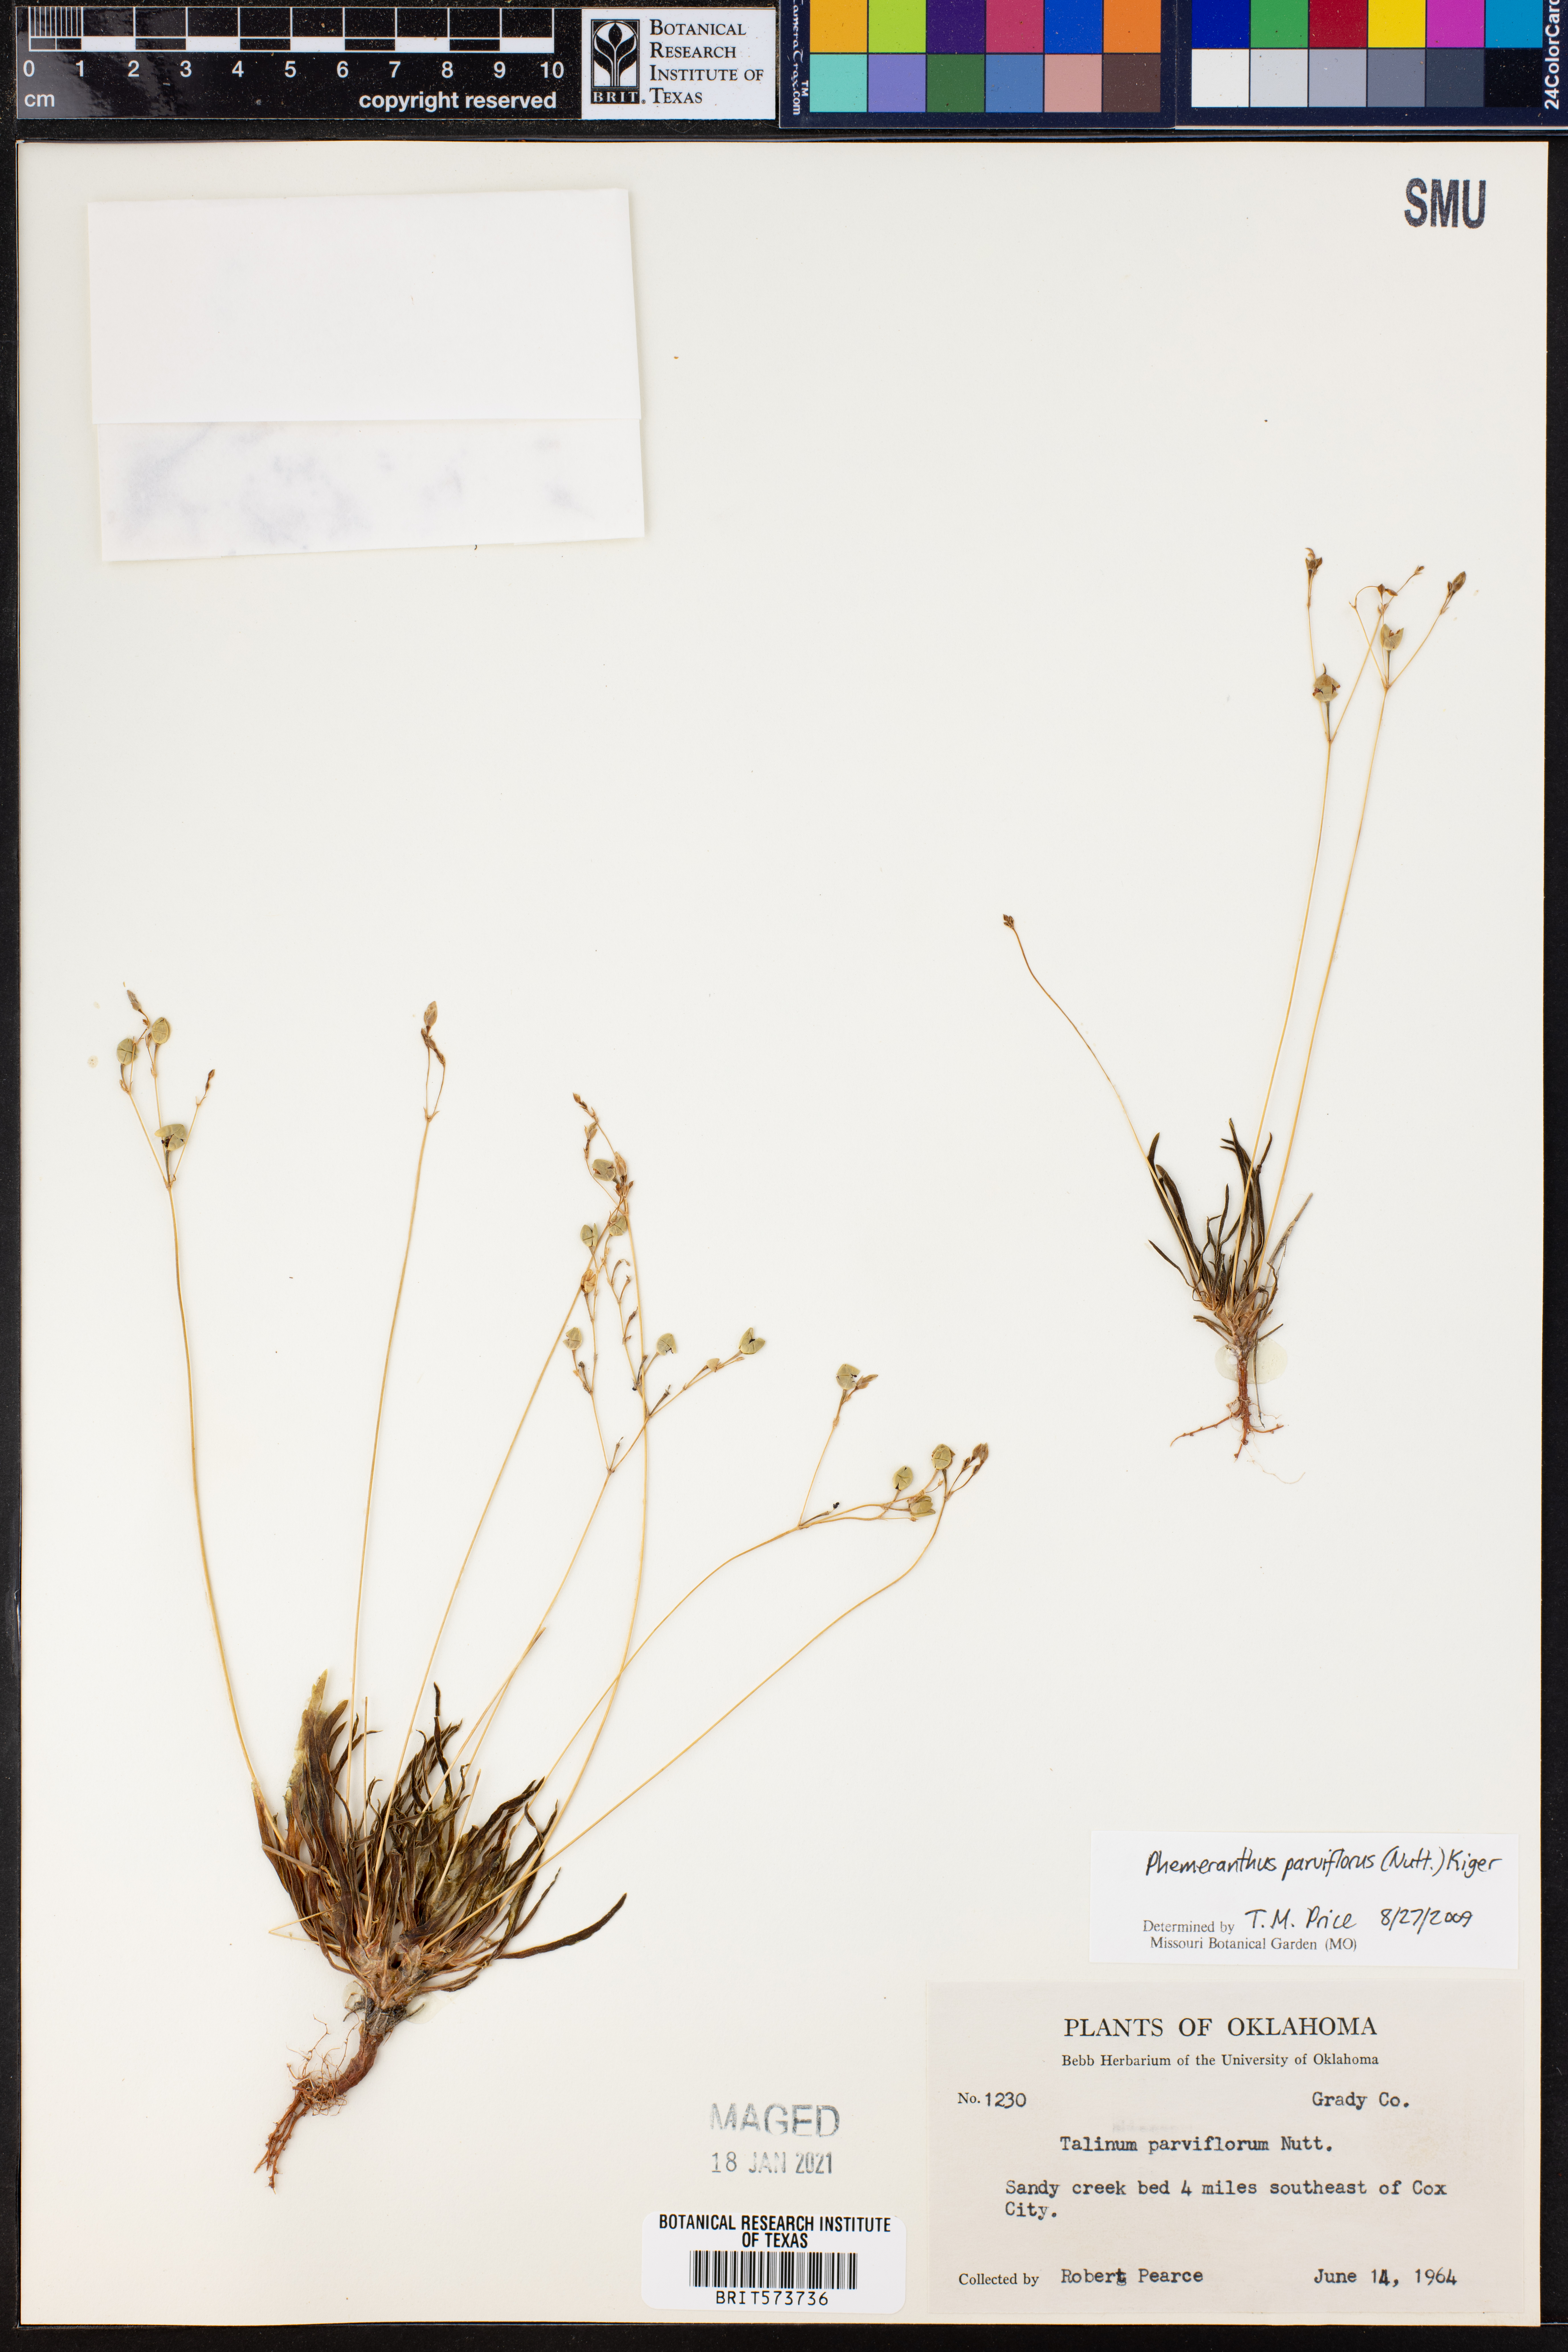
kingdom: Plantae
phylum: Tracheophyta
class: Magnoliopsida
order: Caryophyllales
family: Montiaceae
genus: Phemeranthus
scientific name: Phemeranthus parviflorus
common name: Sunbright
